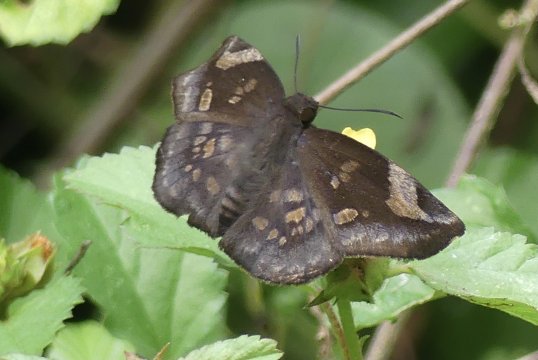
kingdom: Animalia
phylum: Arthropoda
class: Insecta
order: Lepidoptera
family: Hesperiidae
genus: Achlyodes
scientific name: Achlyodes
